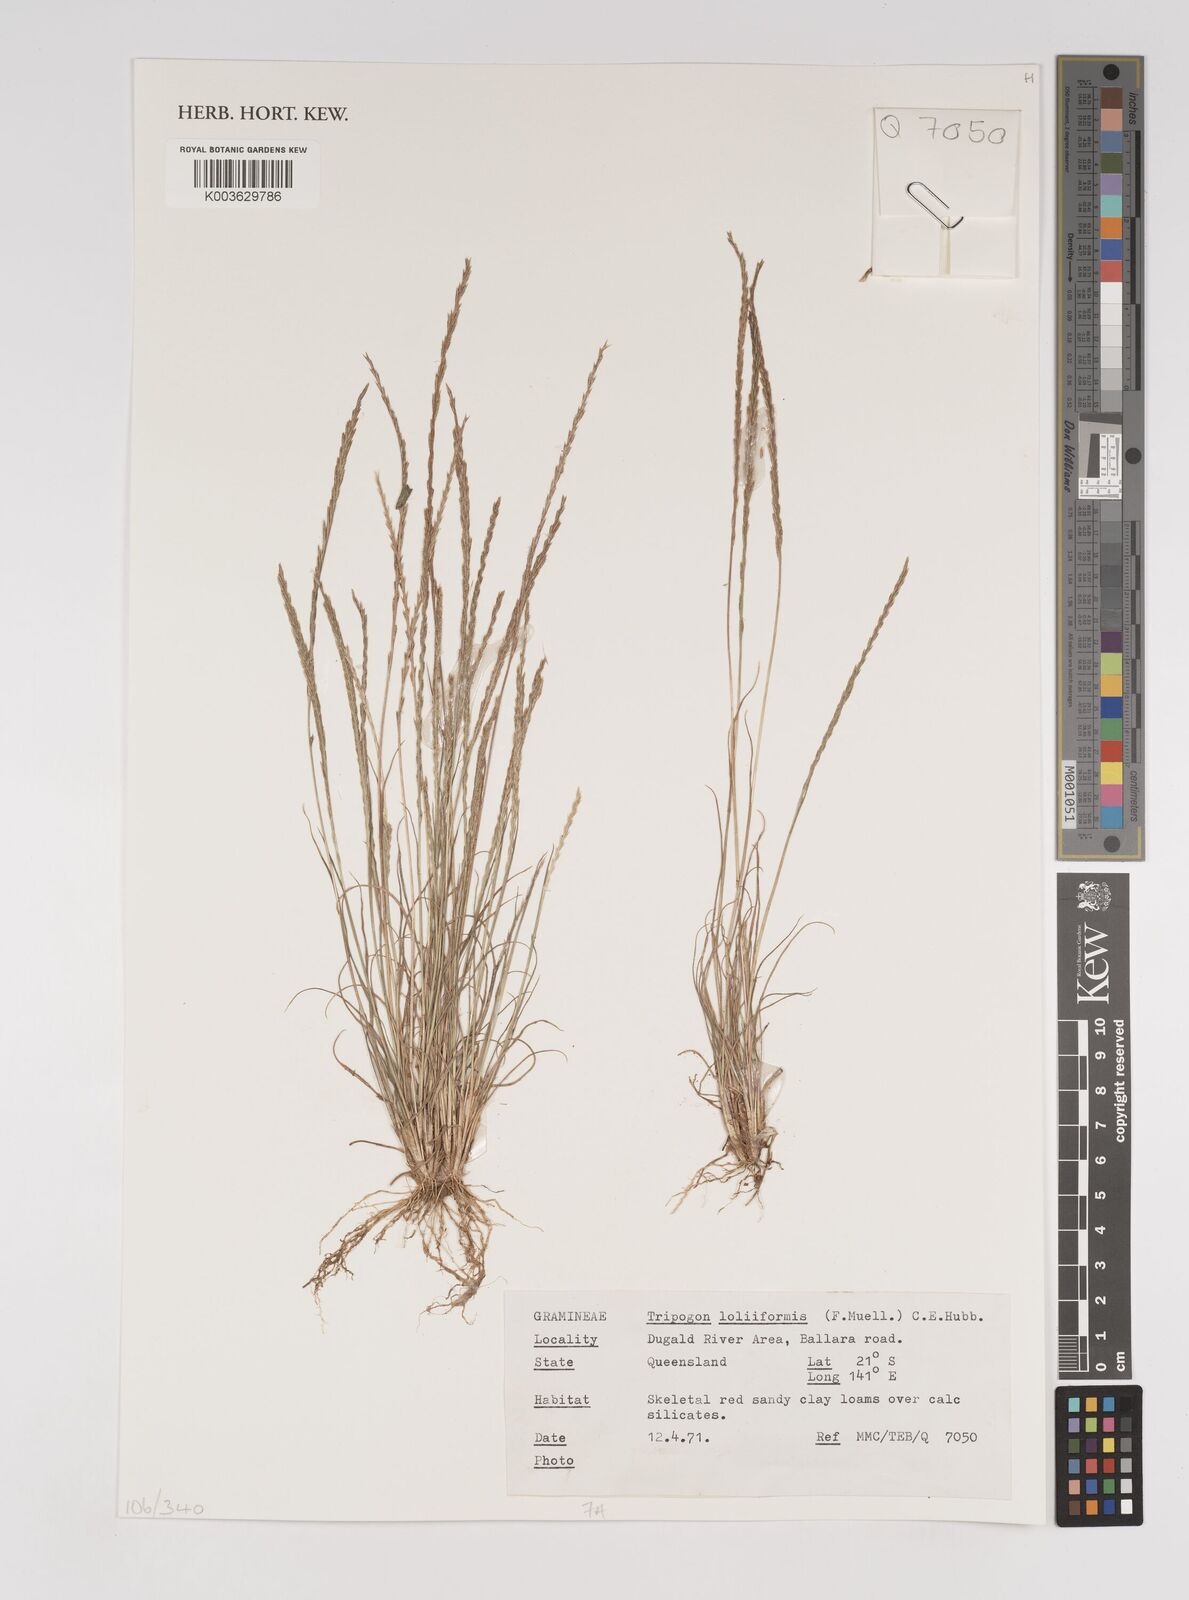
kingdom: Plantae
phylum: Tracheophyta
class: Liliopsida
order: Poales
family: Poaceae
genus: Tripogonella
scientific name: Tripogonella loliiformis
